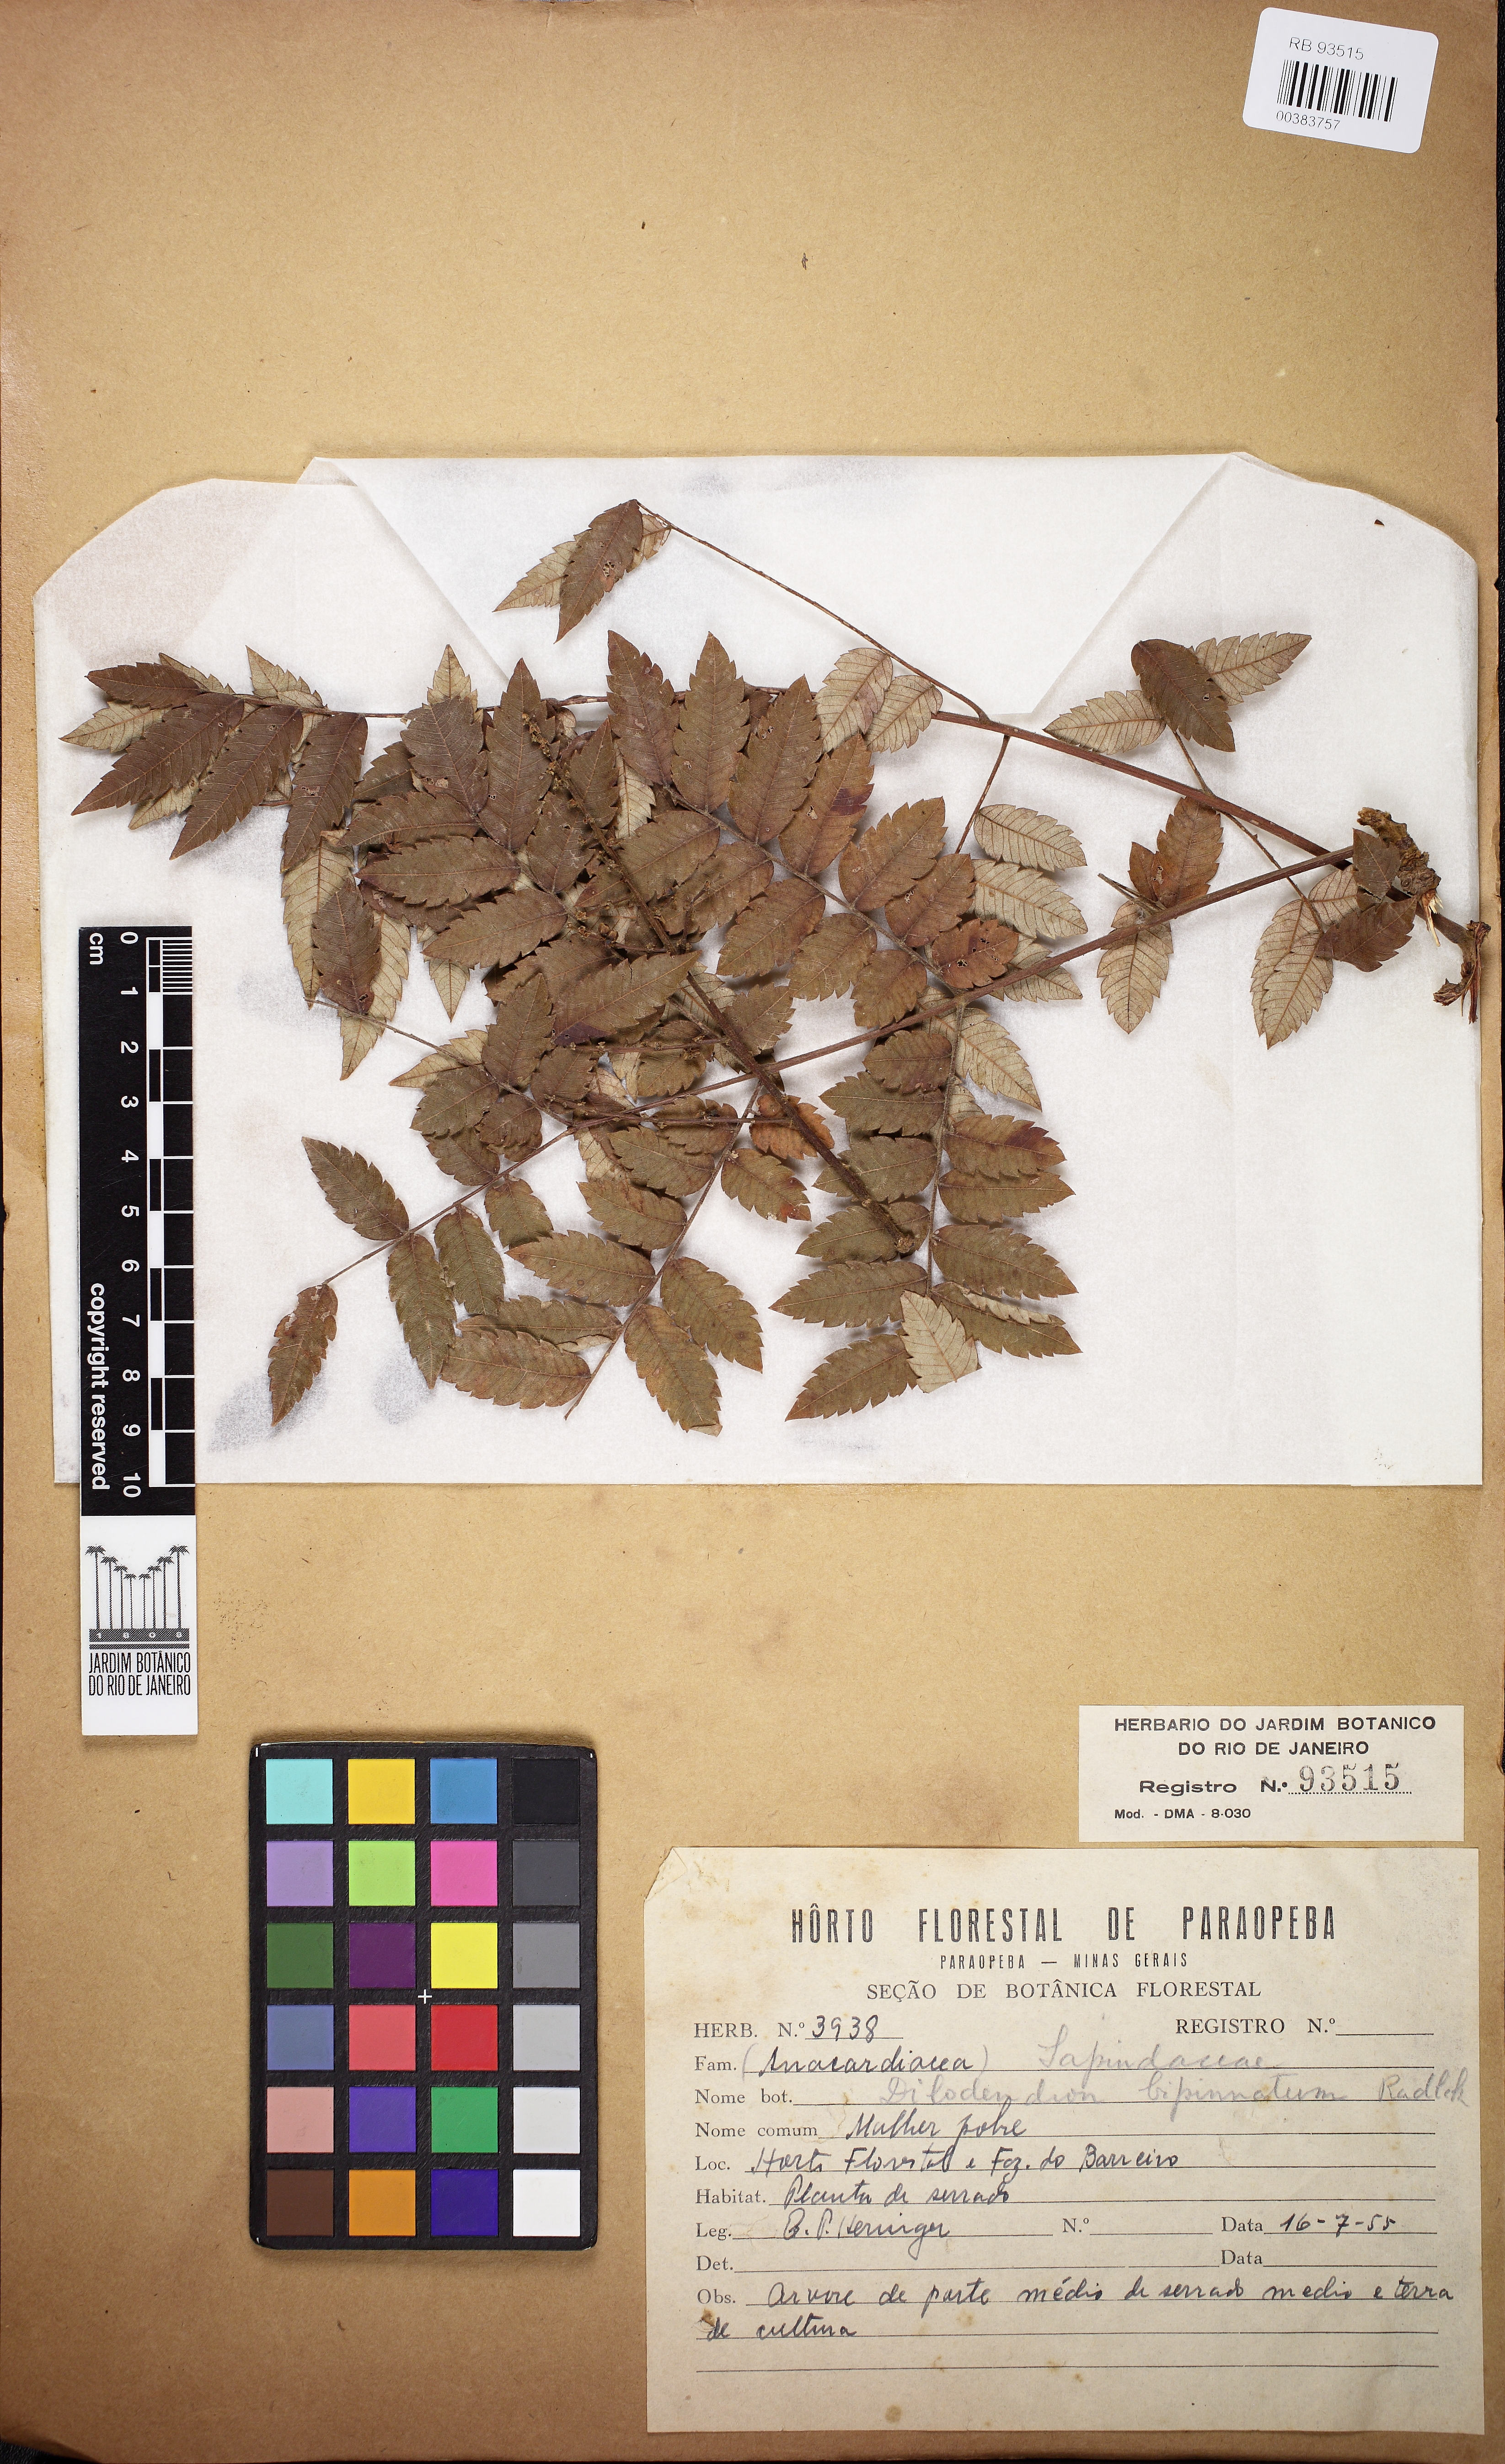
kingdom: Plantae
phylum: Tracheophyta
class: Magnoliopsida
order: Sapindales
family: Sapindaceae
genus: Dilodendron
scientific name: Dilodendron bipinnatum
